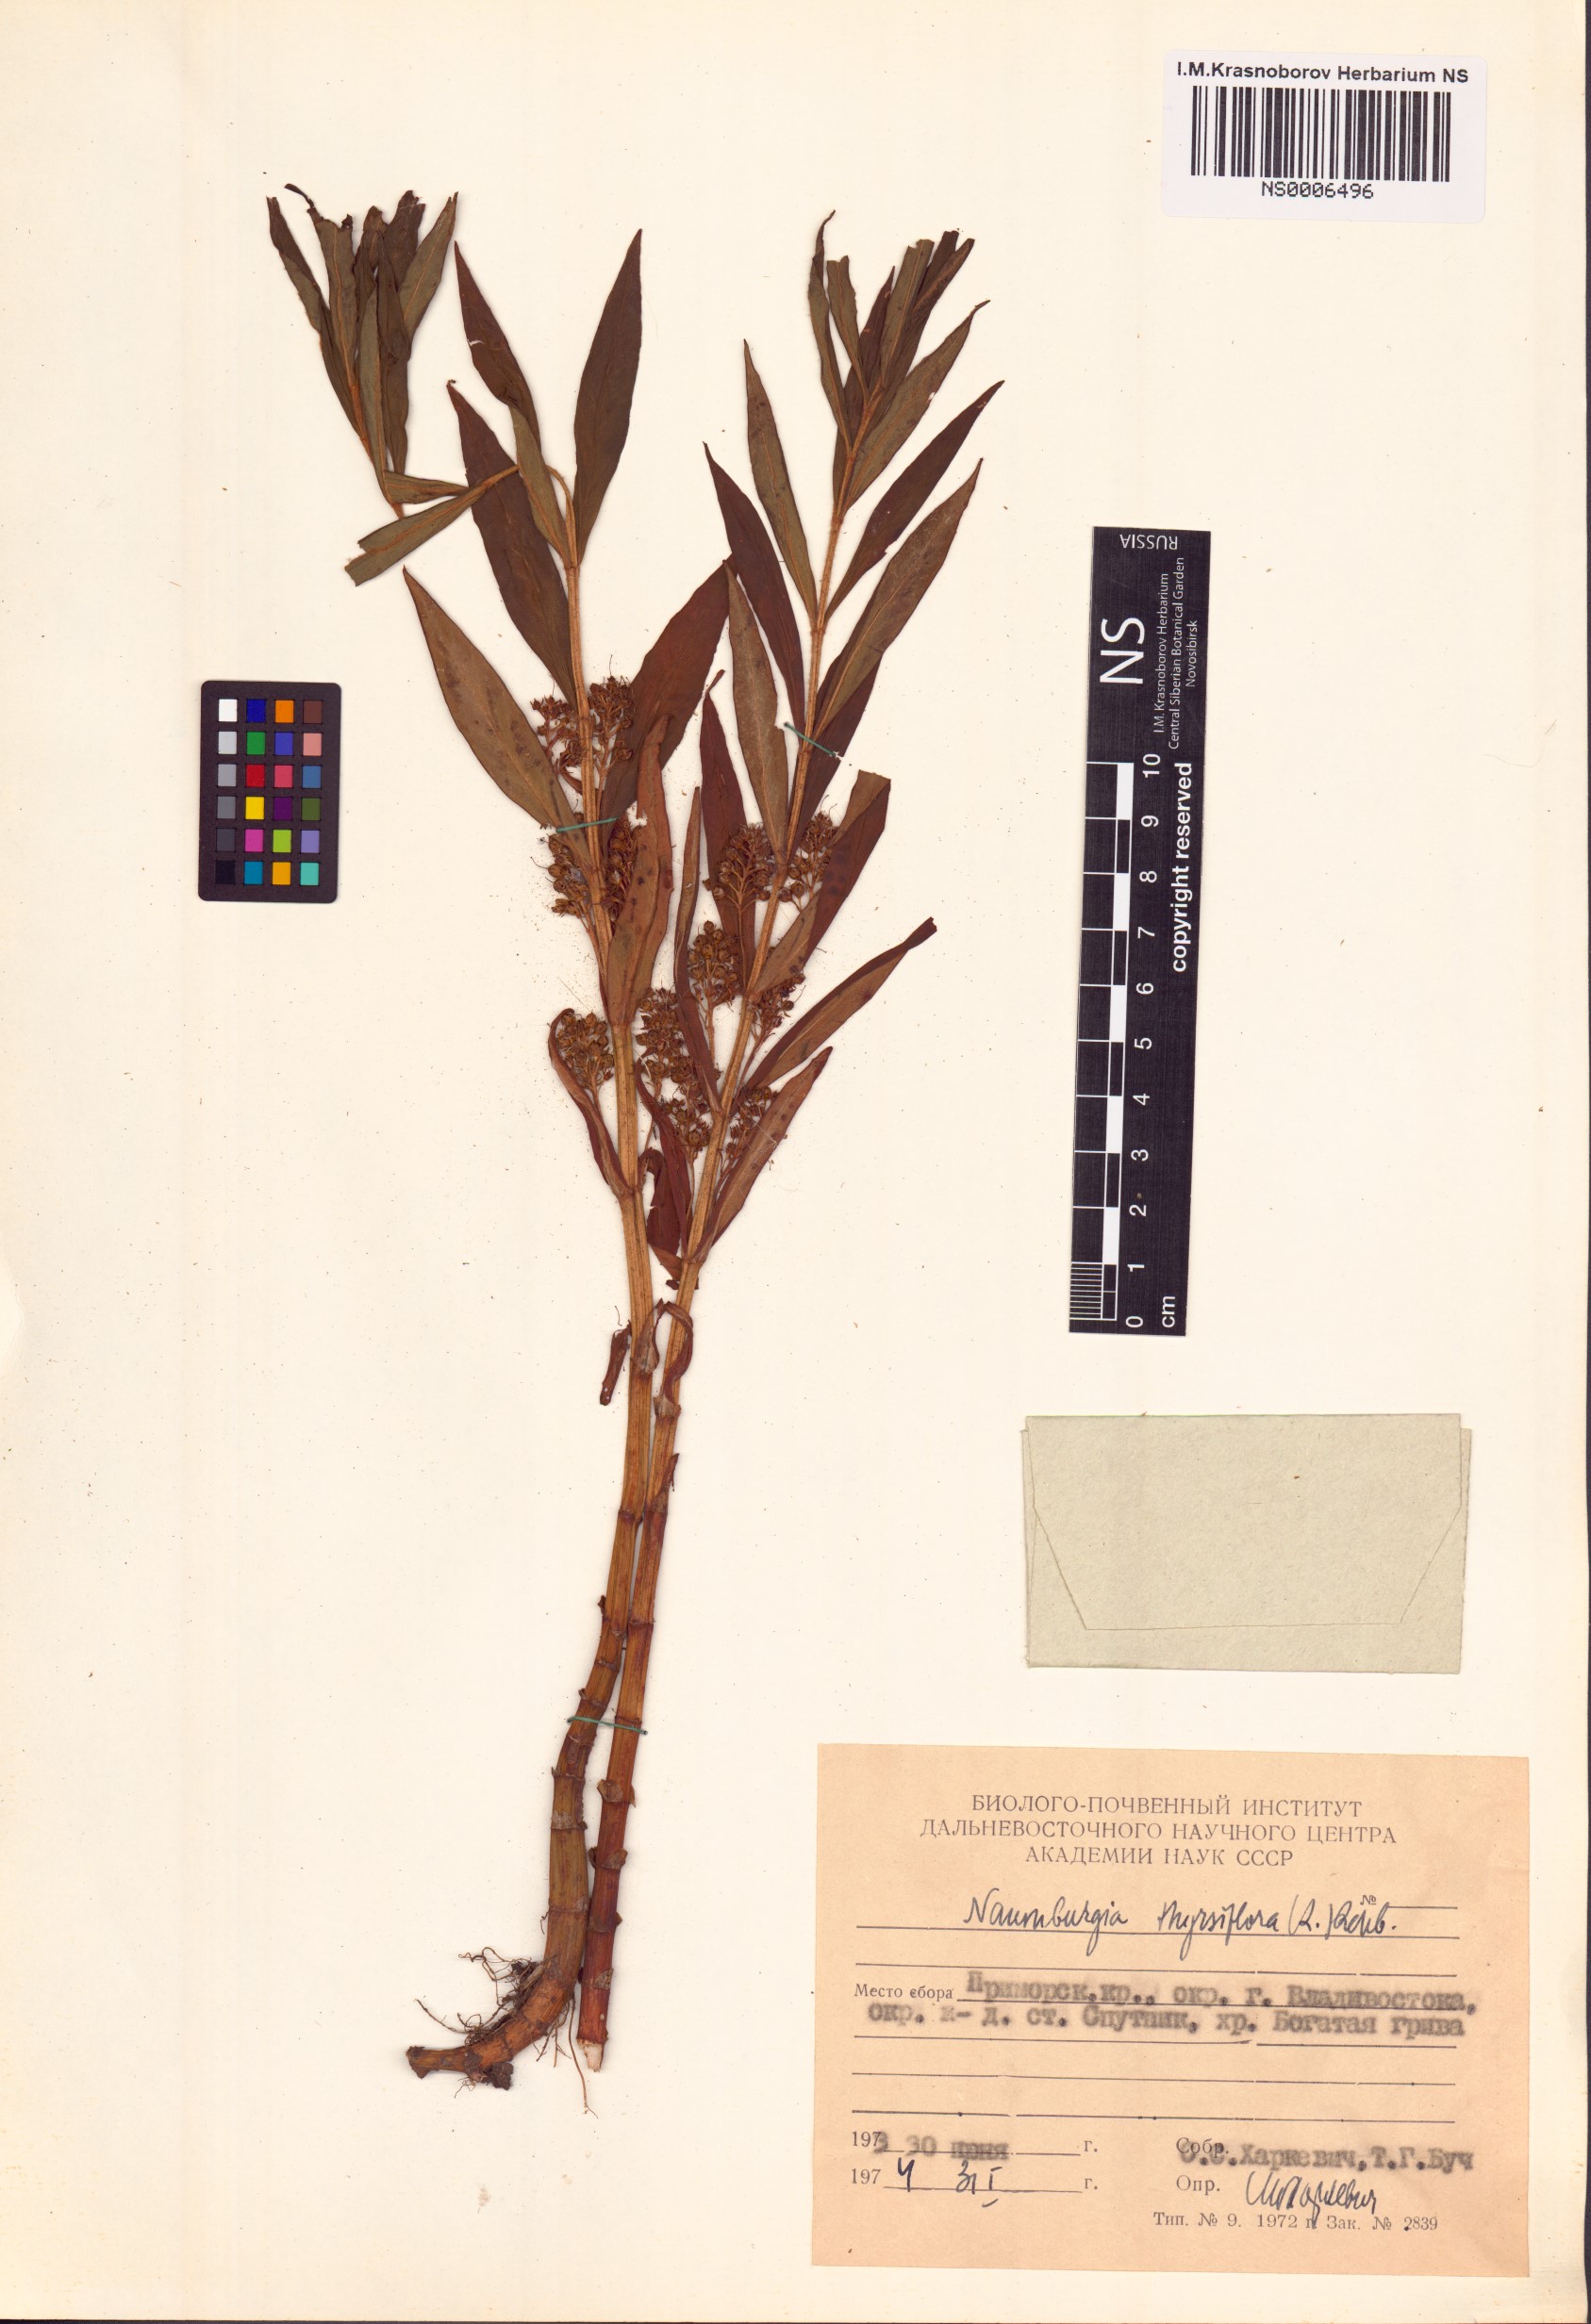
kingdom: Plantae
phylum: Tracheophyta
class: Magnoliopsida
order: Ericales
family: Primulaceae
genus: Lysimachia
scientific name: Lysimachia thyrsiflora
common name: Tufted loosestrife
